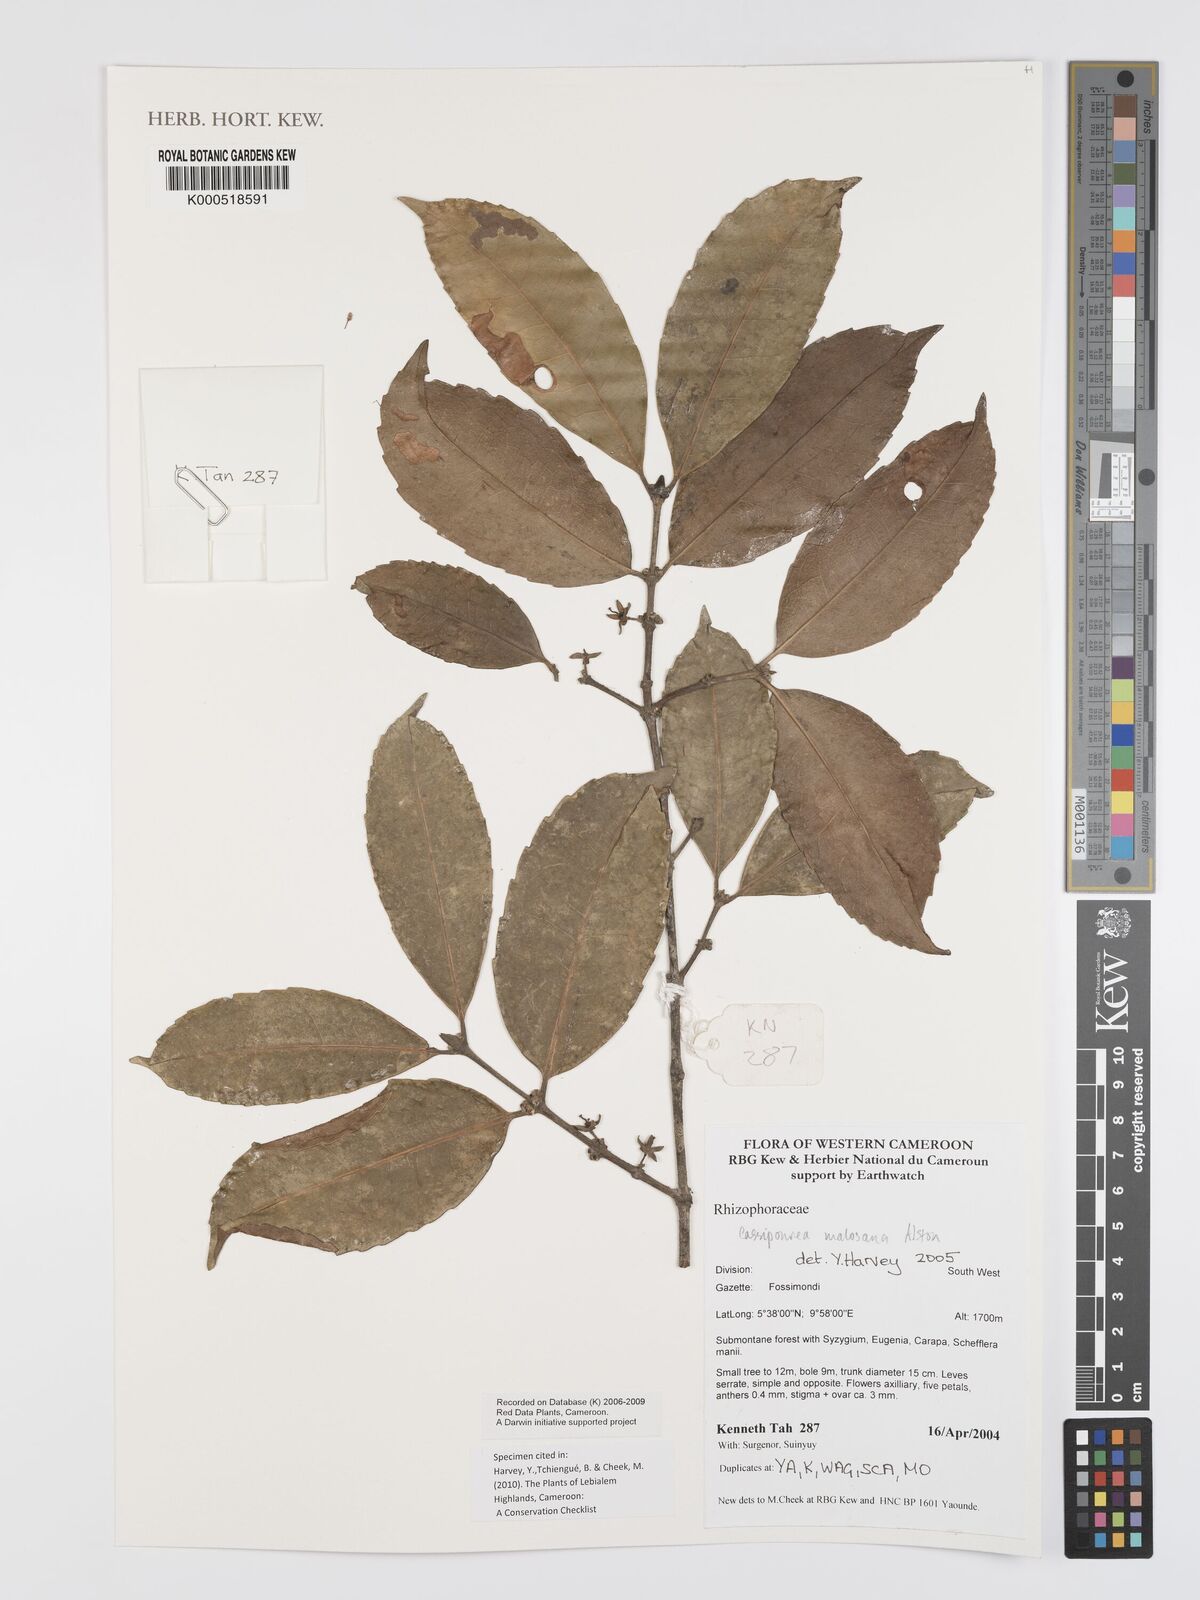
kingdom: Plantae
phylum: Tracheophyta
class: Magnoliopsida
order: Malpighiales
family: Rhizophoraceae
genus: Cassipourea
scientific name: Cassipourea malosana
